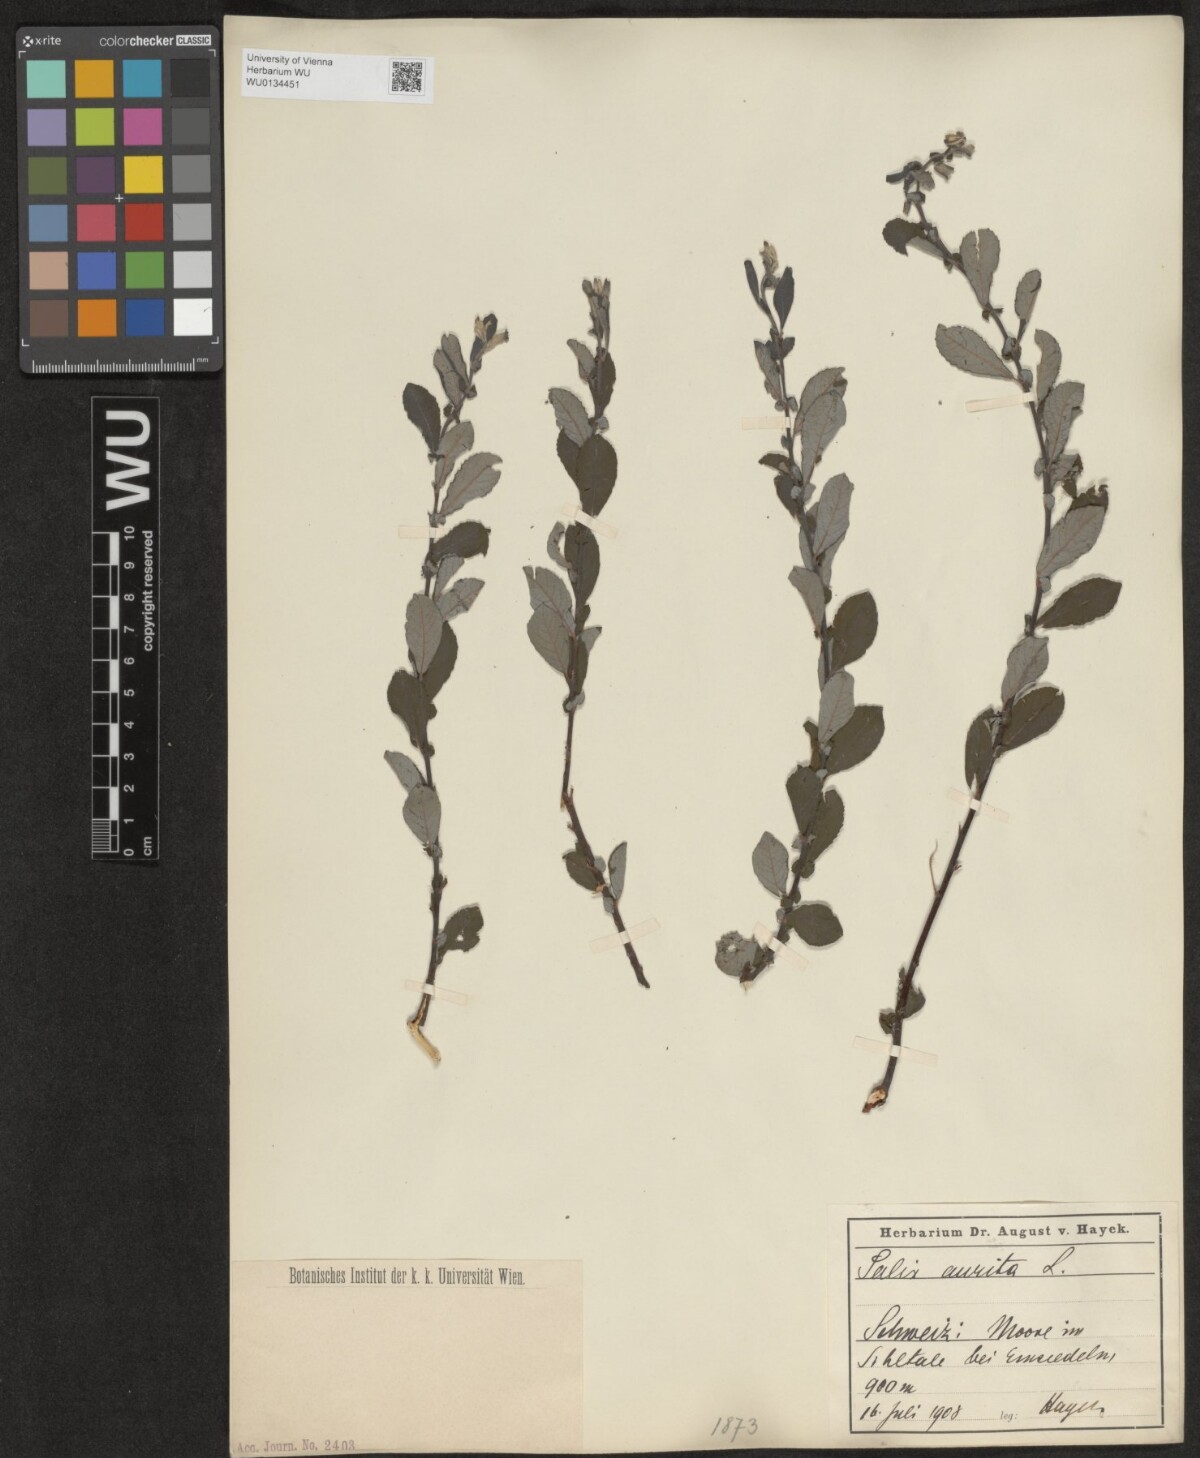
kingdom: Plantae
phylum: Tracheophyta
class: Magnoliopsida
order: Malpighiales
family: Salicaceae
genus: Salix
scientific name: Salix aurita
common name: Eared willow
